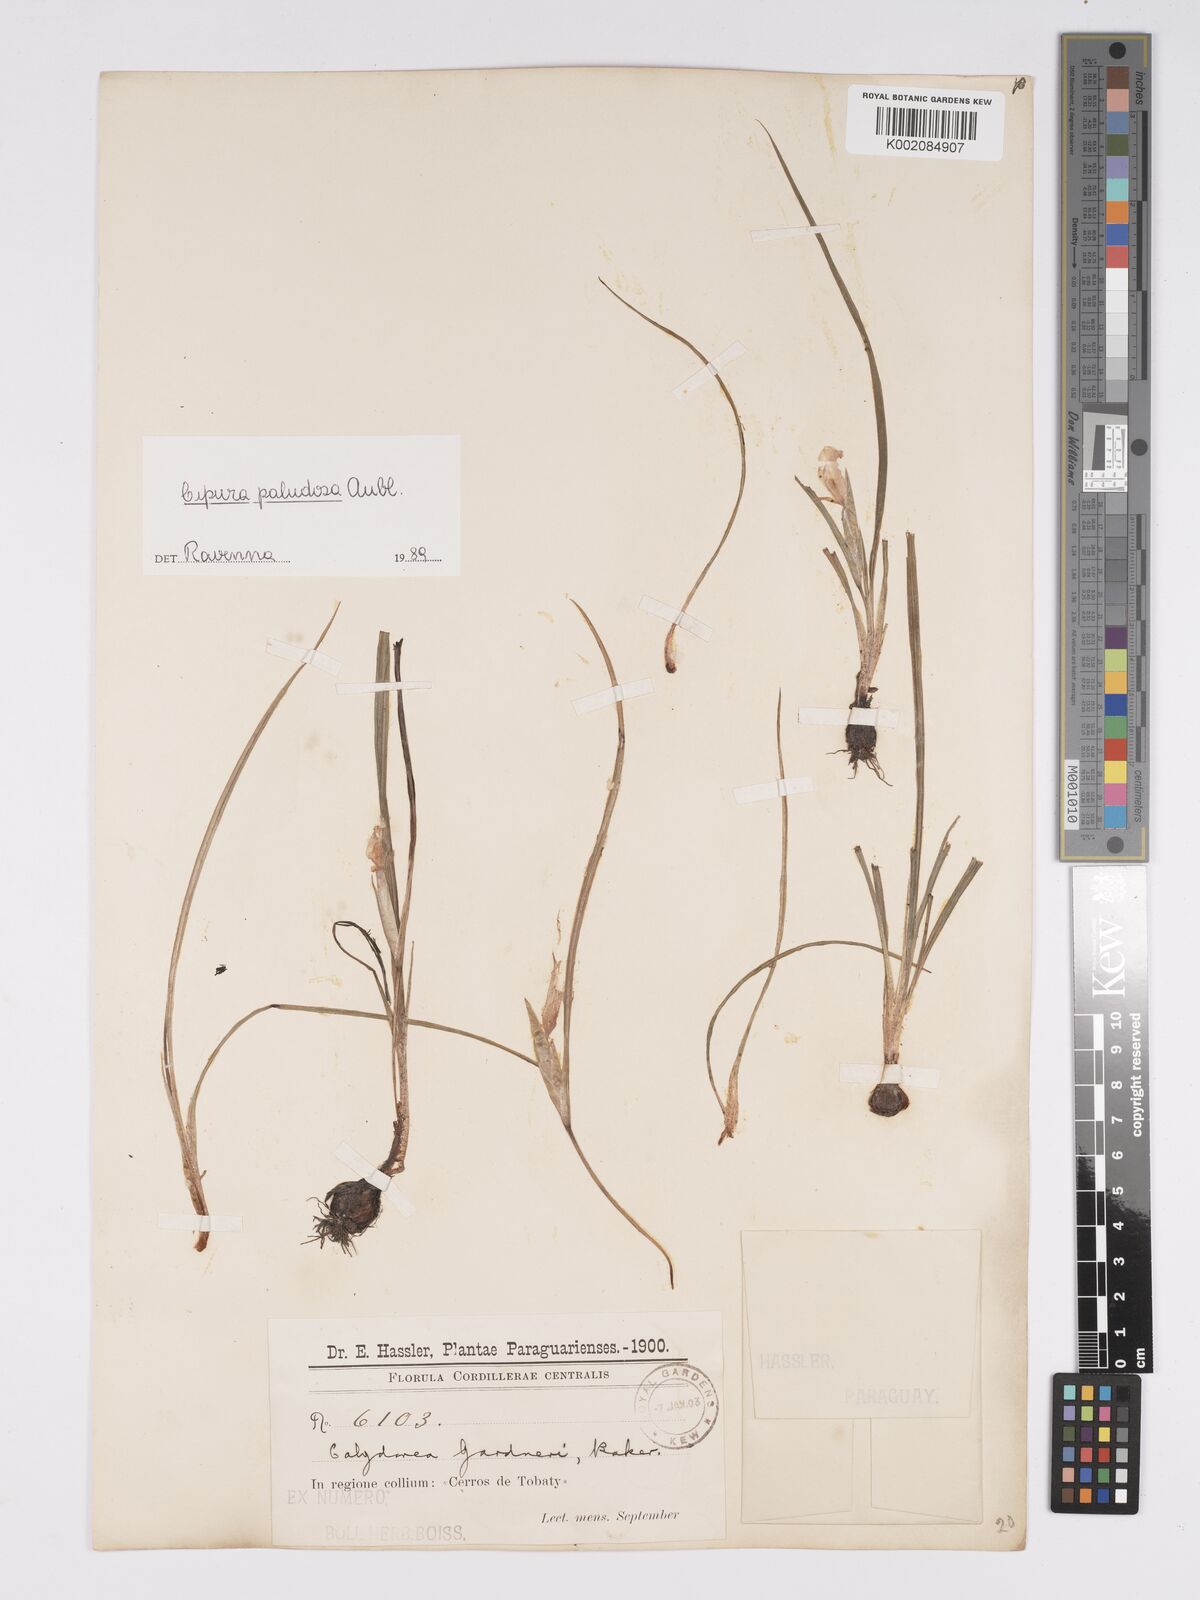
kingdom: Plantae
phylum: Tracheophyta
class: Liliopsida
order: Asparagales
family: Iridaceae
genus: Cipura
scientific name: Cipura paludosa
